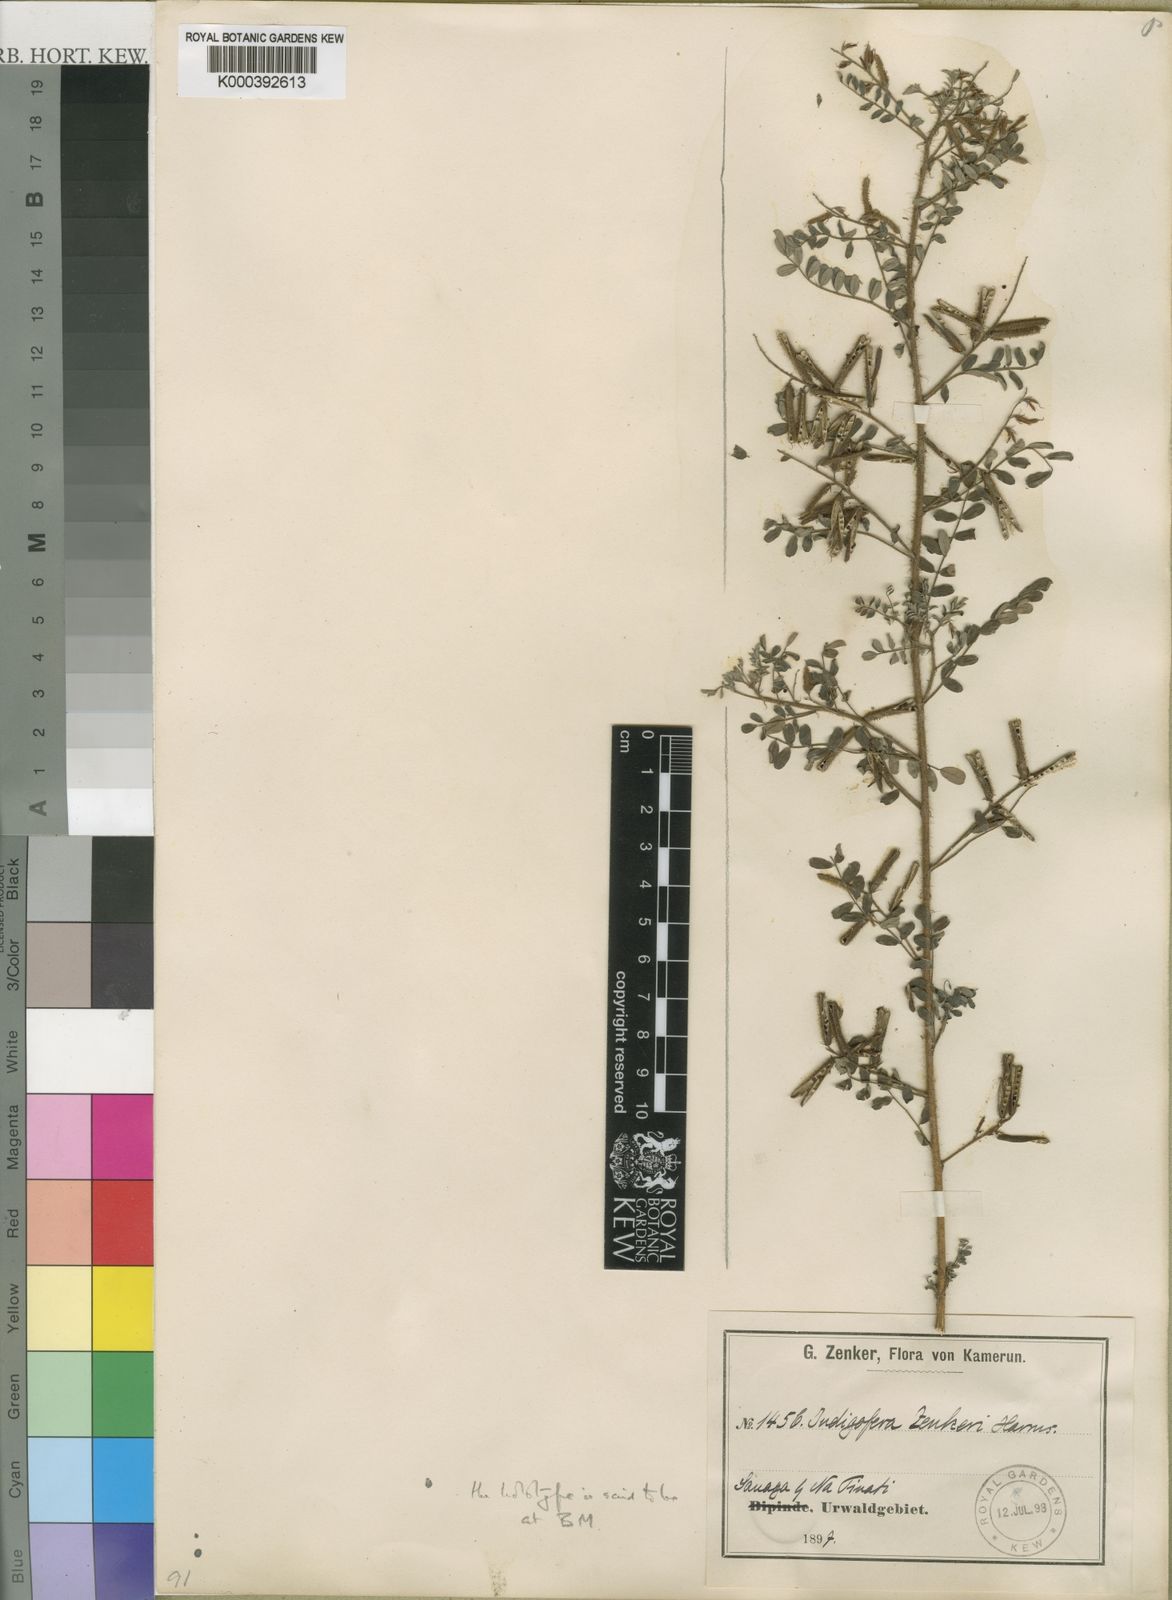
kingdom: Plantae
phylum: Tracheophyta
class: Magnoliopsida
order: Fabales
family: Fabaceae
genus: Indigofera
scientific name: Indigofera
